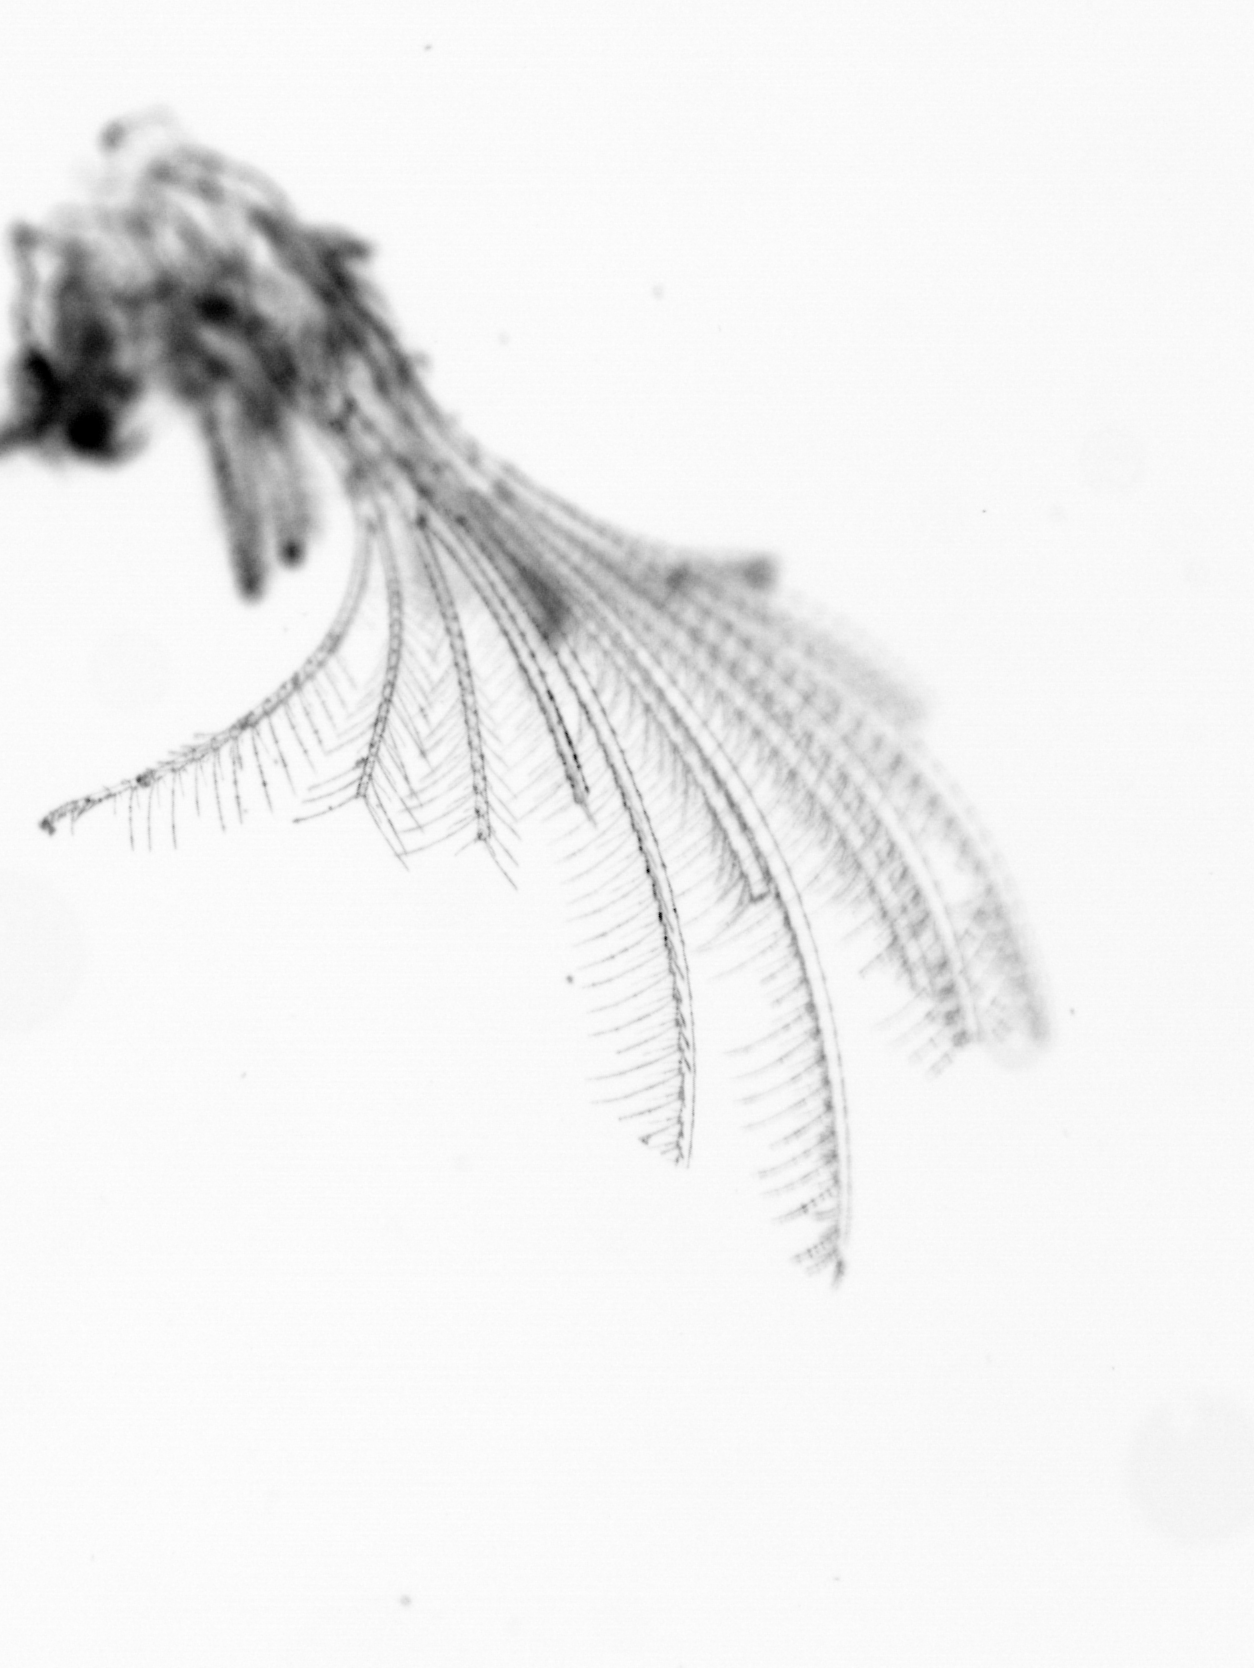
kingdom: Animalia
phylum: Arthropoda
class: Maxillopoda
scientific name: Maxillopoda
